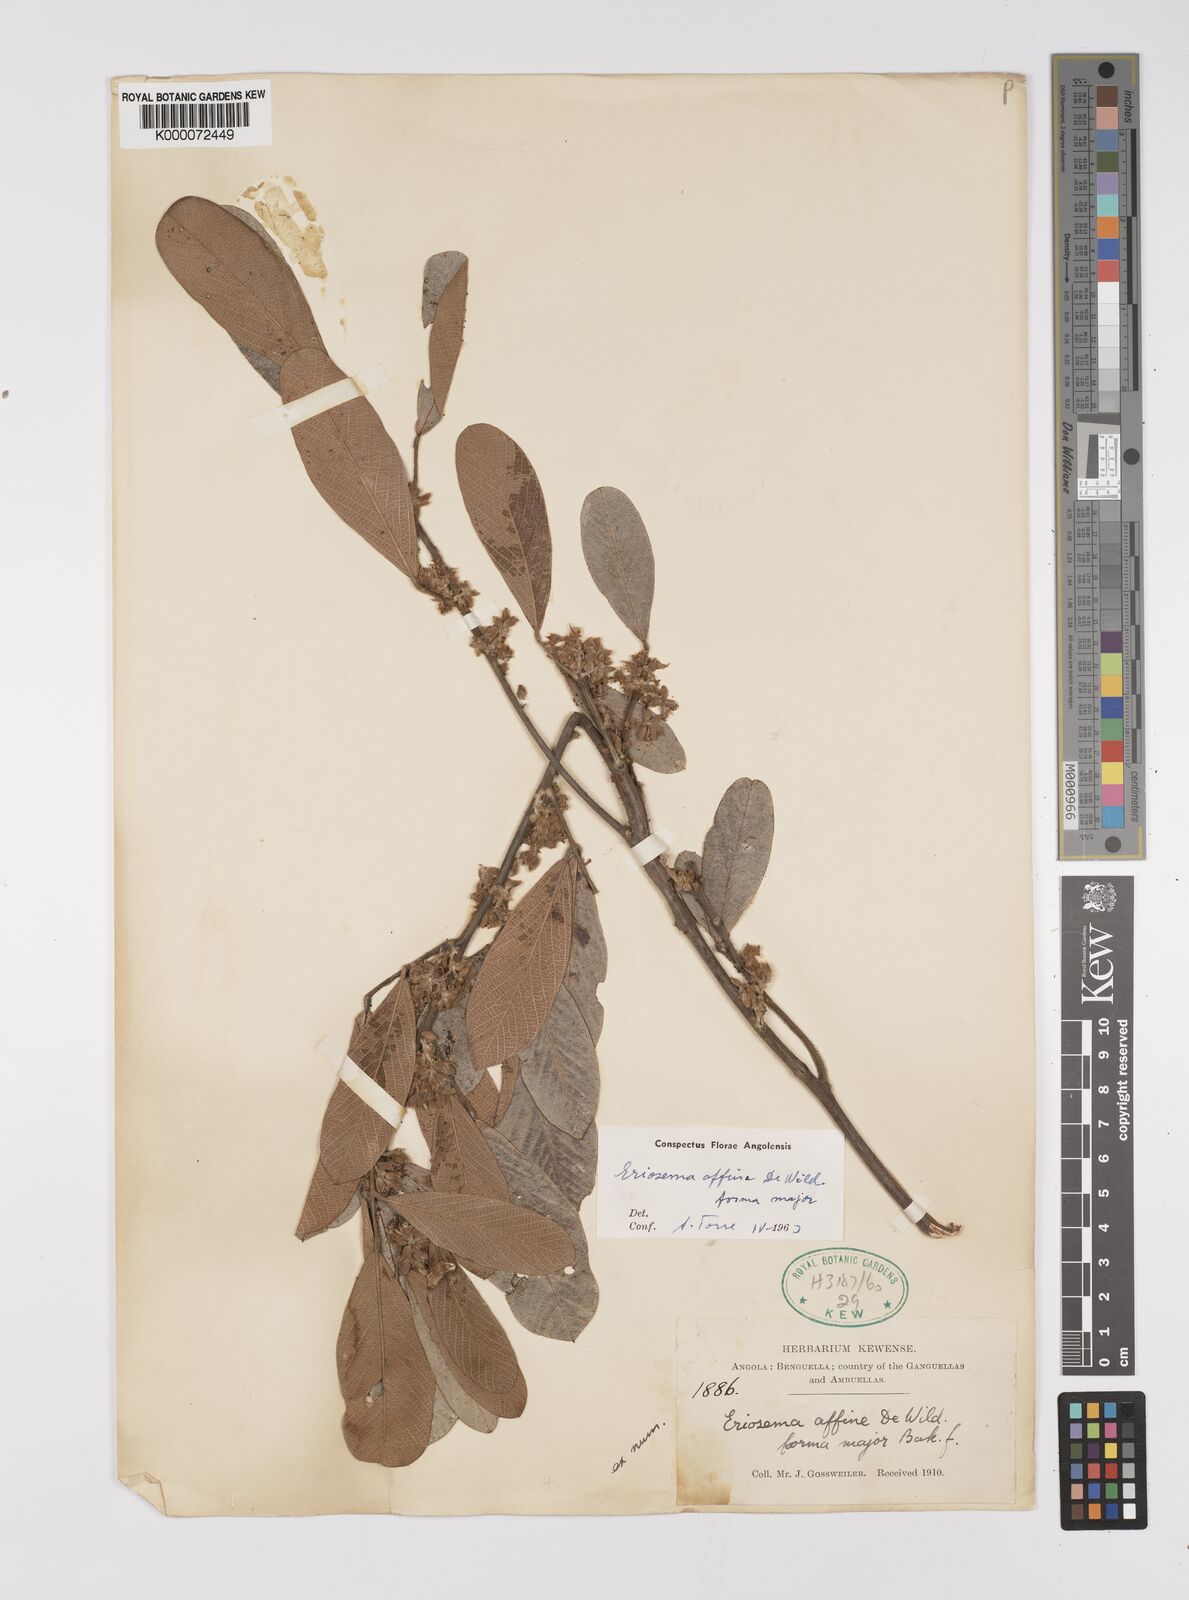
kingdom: Plantae
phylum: Tracheophyta
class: Magnoliopsida
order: Fabales
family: Fabaceae
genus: Eriosema
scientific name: Eriosema affine
